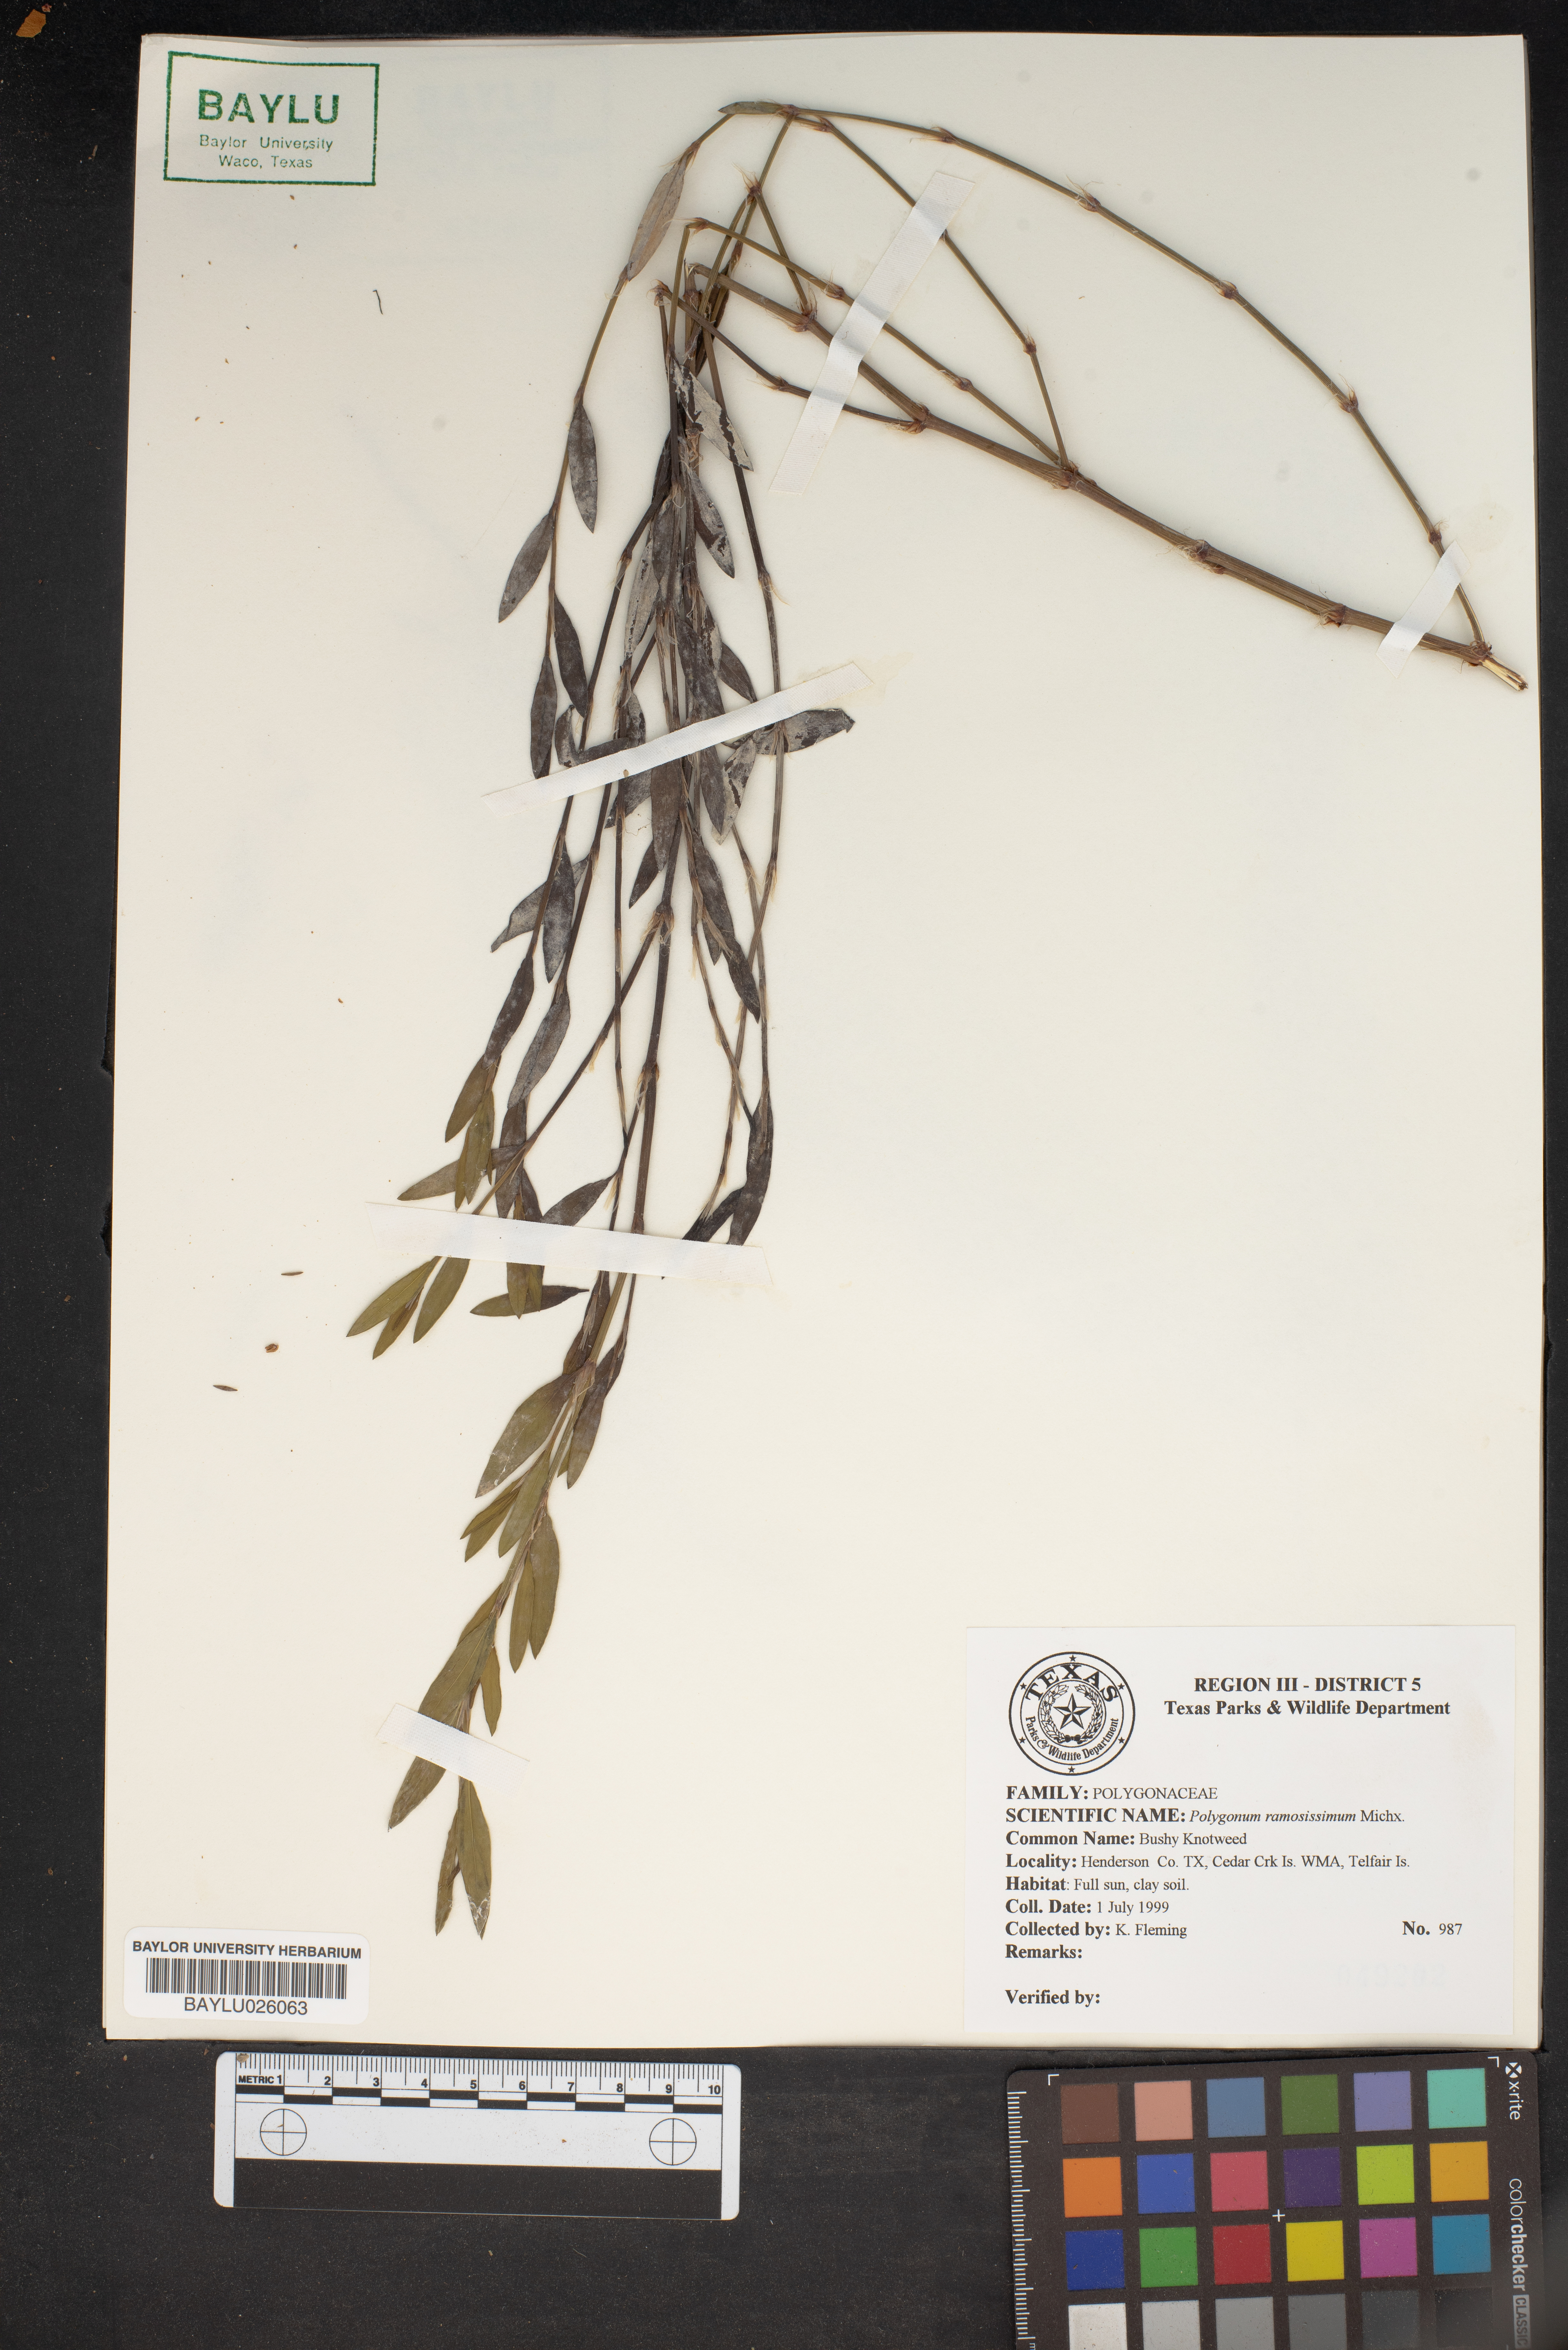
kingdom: Plantae
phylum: Tracheophyta
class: Magnoliopsida
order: Caryophyllales
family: Polygonaceae
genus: Polygonum
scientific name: Polygonum ramosissimum
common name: Bushy knotweed
